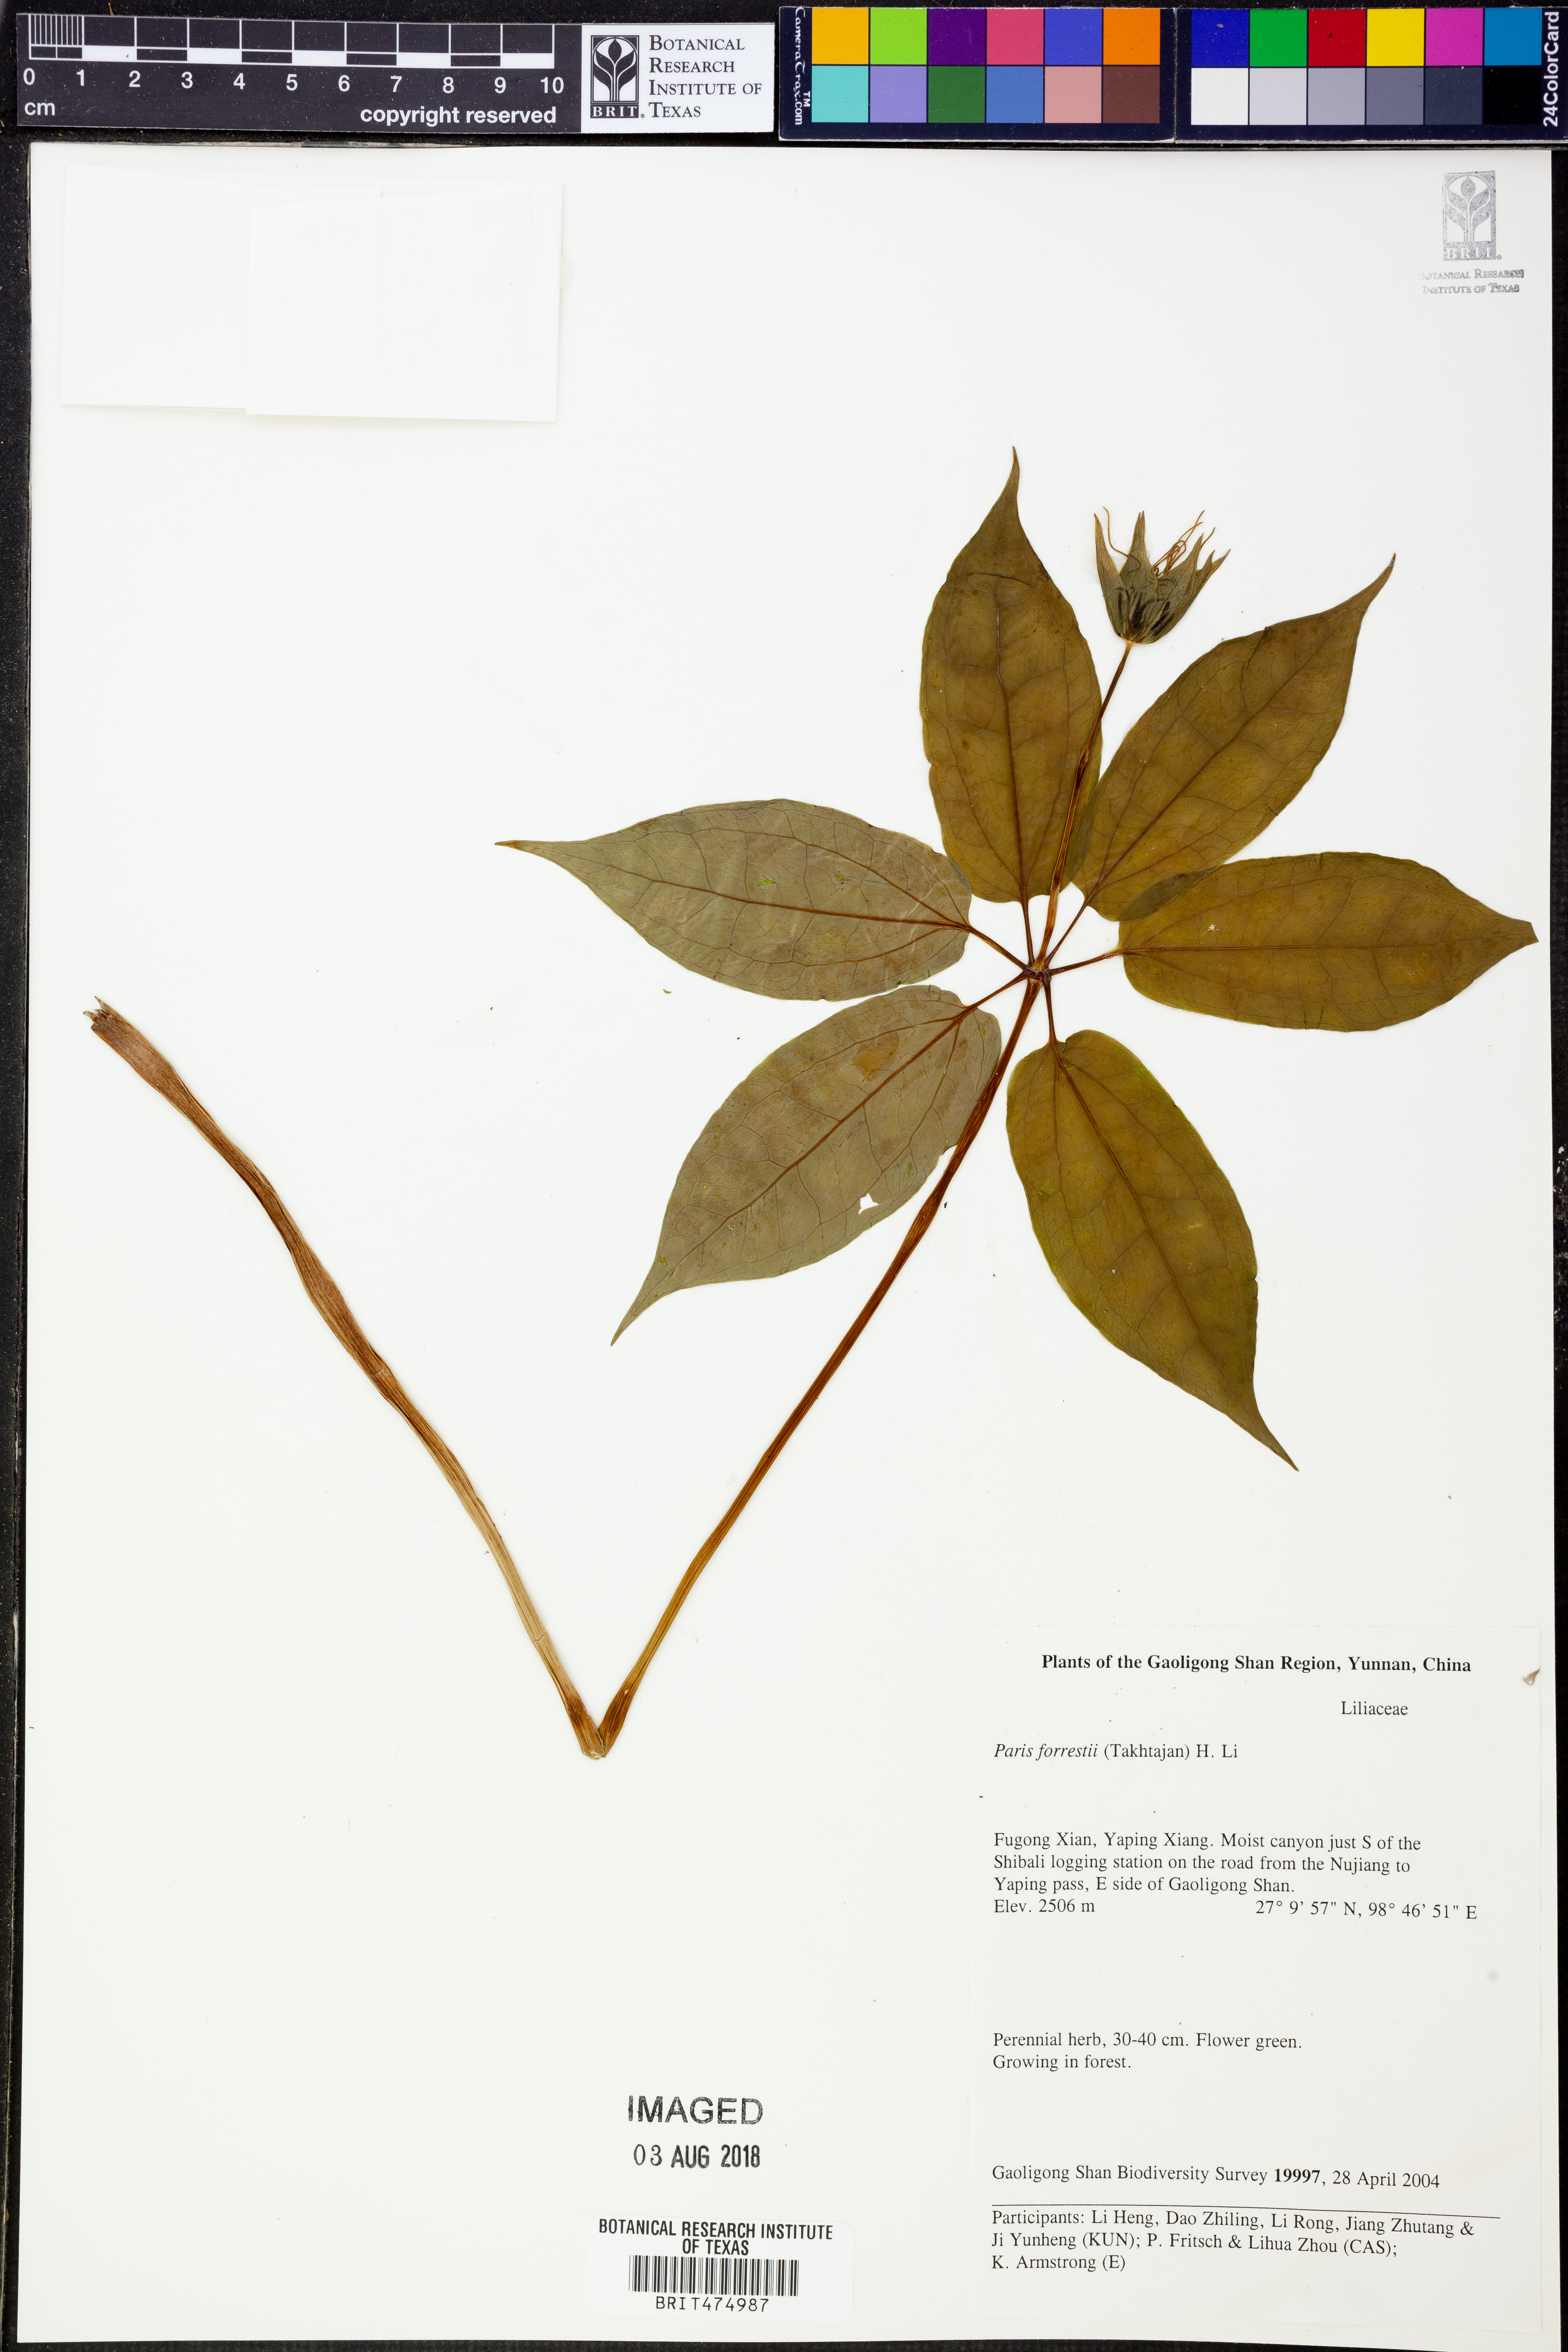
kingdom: Plantae
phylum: Tracheophyta
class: Liliopsida
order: Liliales
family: Melanthiaceae
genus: Paris
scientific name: Paris forrestii
